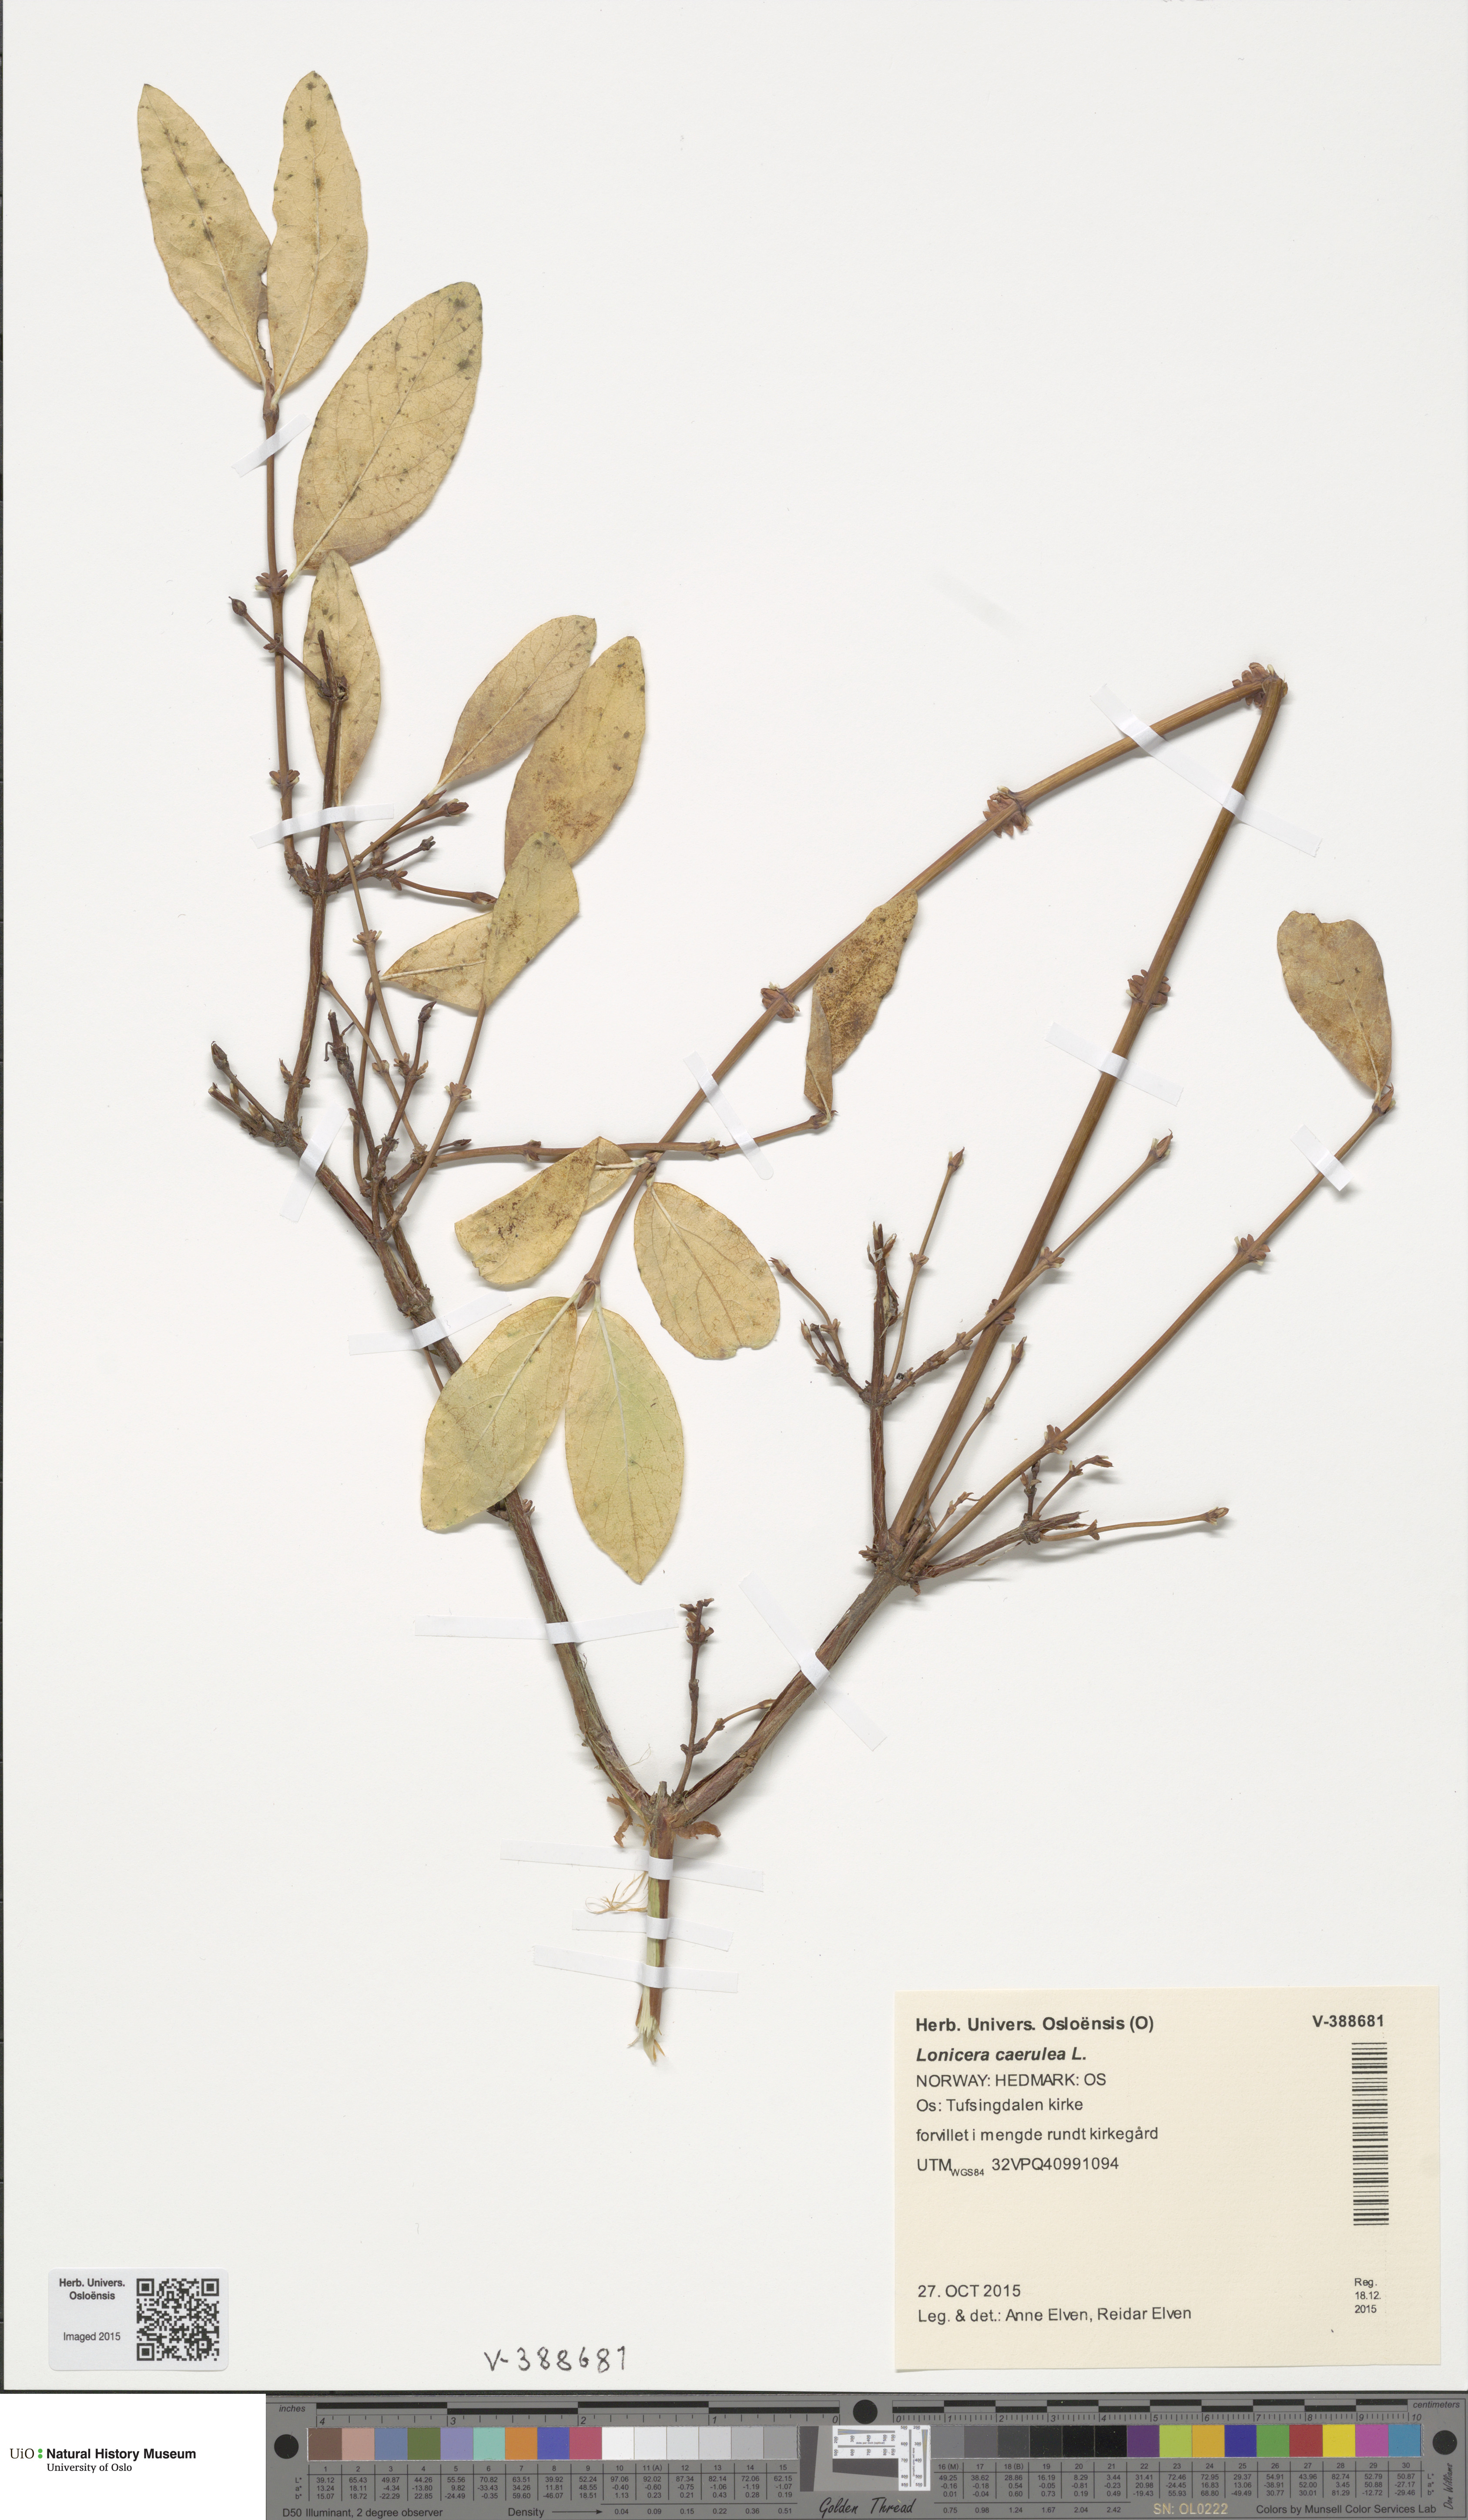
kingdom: Plantae
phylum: Tracheophyta
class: Magnoliopsida
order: Dipsacales
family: Caprifoliaceae
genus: Lonicera
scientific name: Lonicera caerulea
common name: Blue honeysuckle
